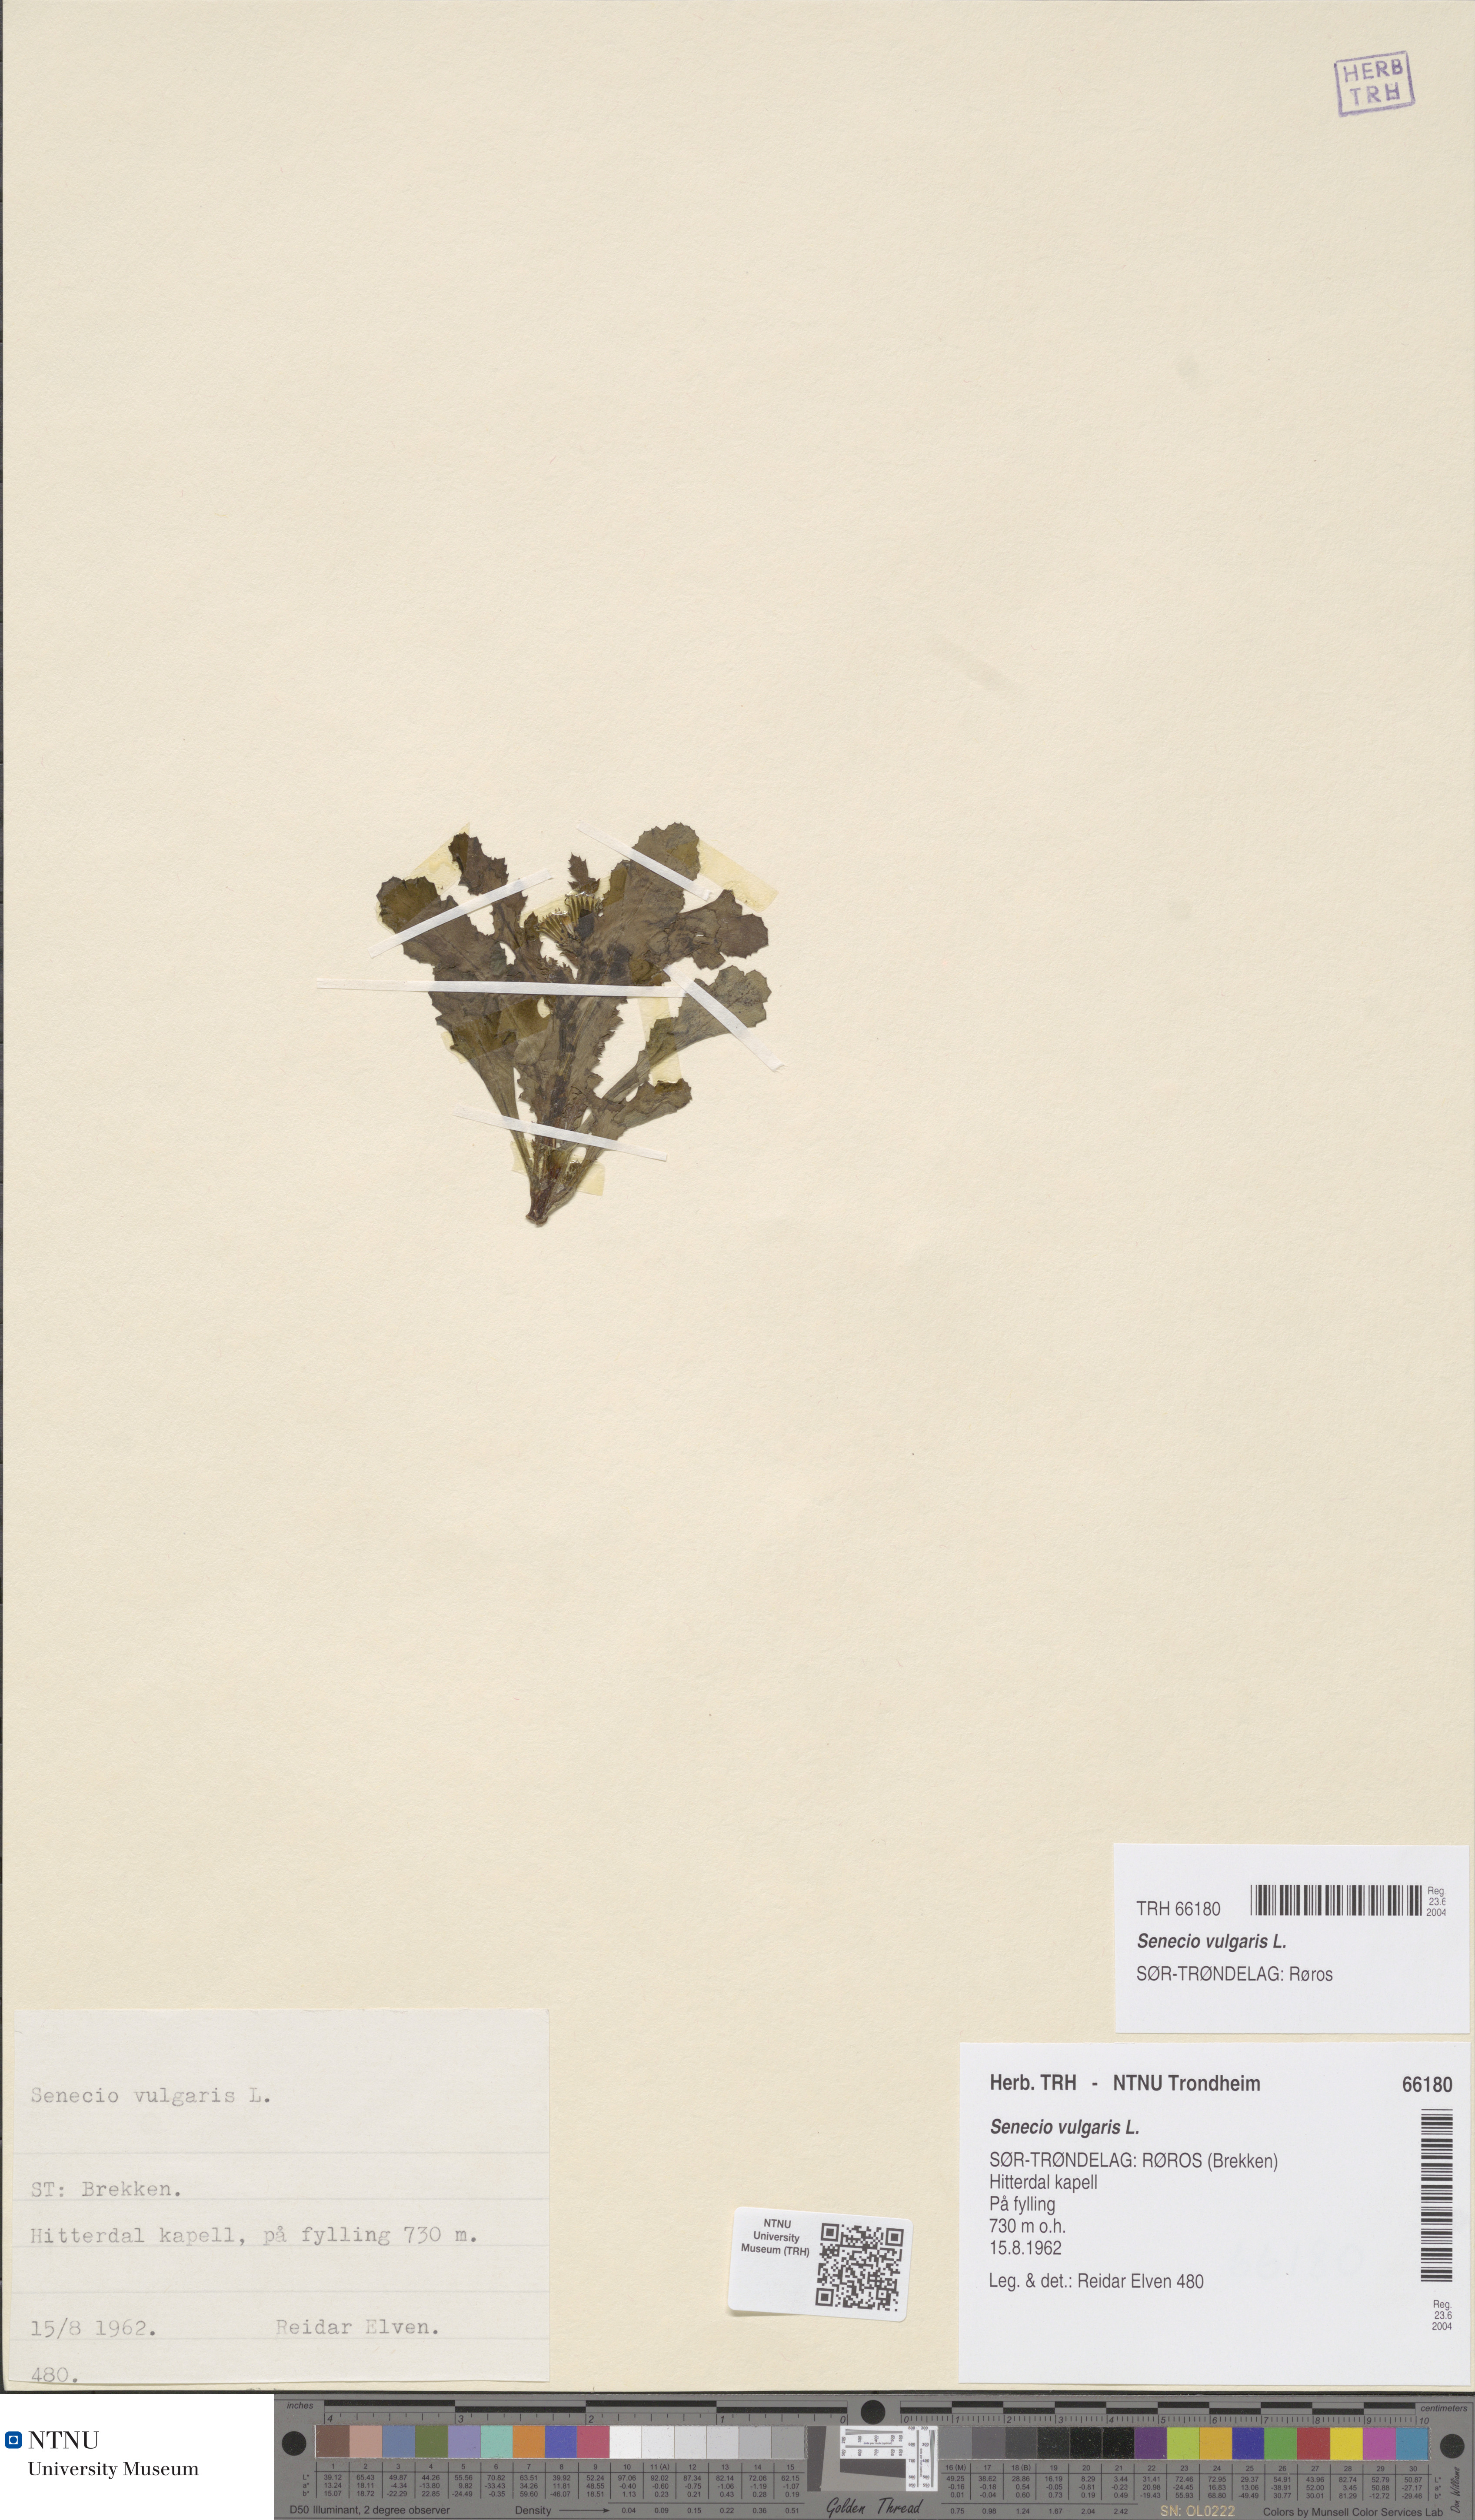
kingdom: Plantae
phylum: Tracheophyta
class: Magnoliopsida
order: Asterales
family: Asteraceae
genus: Senecio
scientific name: Senecio vulgaris
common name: Old-man-in-the-spring
